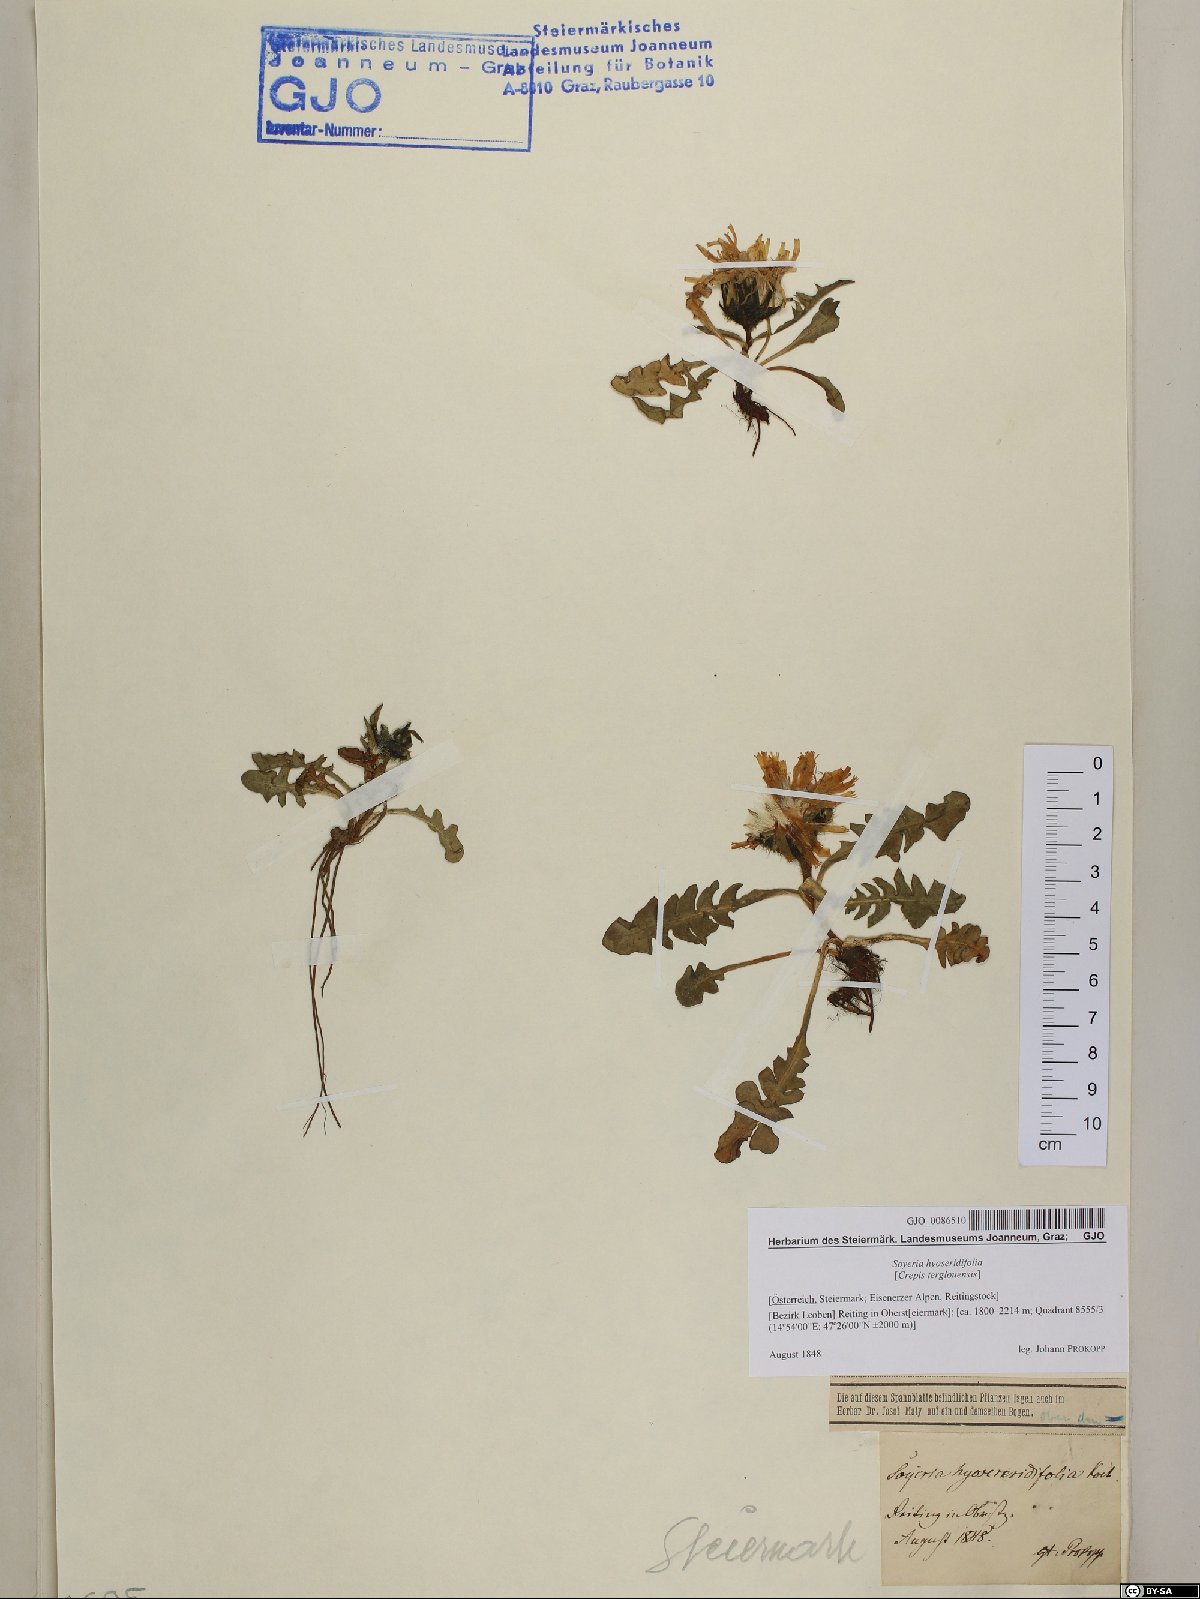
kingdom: Plantae
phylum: Tracheophyta
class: Magnoliopsida
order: Asterales
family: Asteraceae
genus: Crepis
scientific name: Crepis terglouensis
